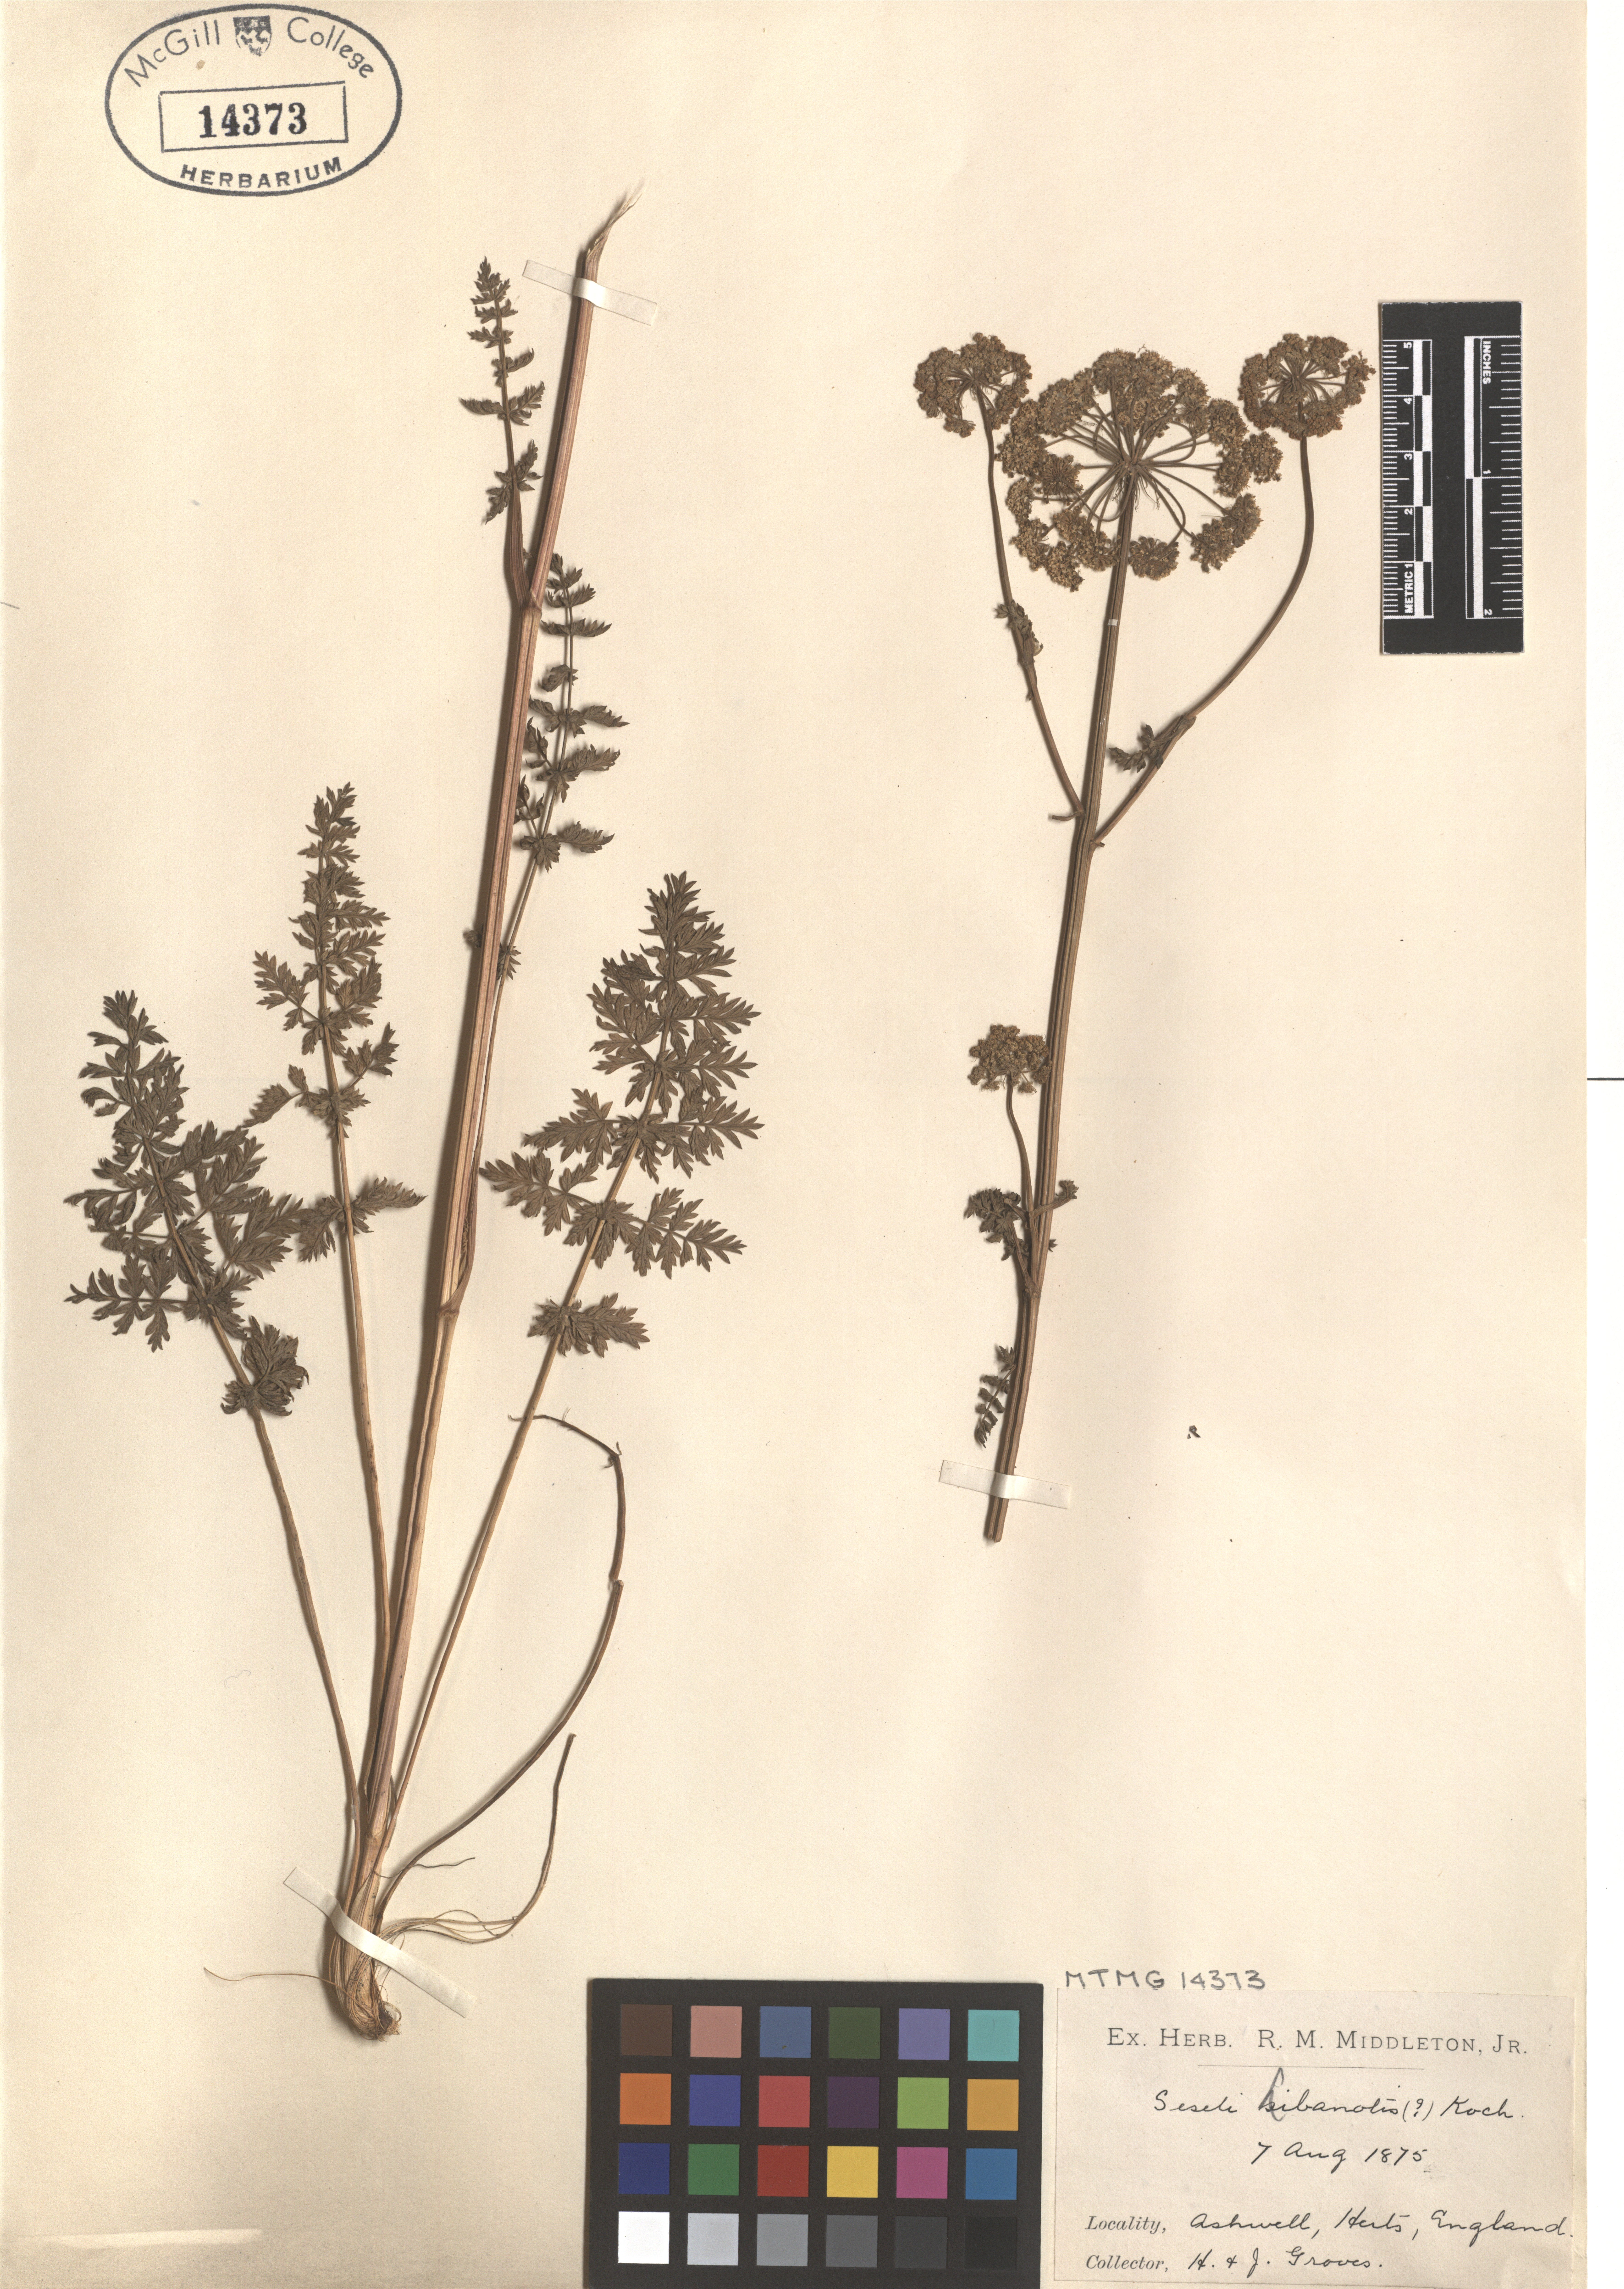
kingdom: Plantae
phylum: Tracheophyta
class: Magnoliopsida
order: Apiales
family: Apiaceae
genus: Seseli
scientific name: Seseli libanotis
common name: Mooncarrot
